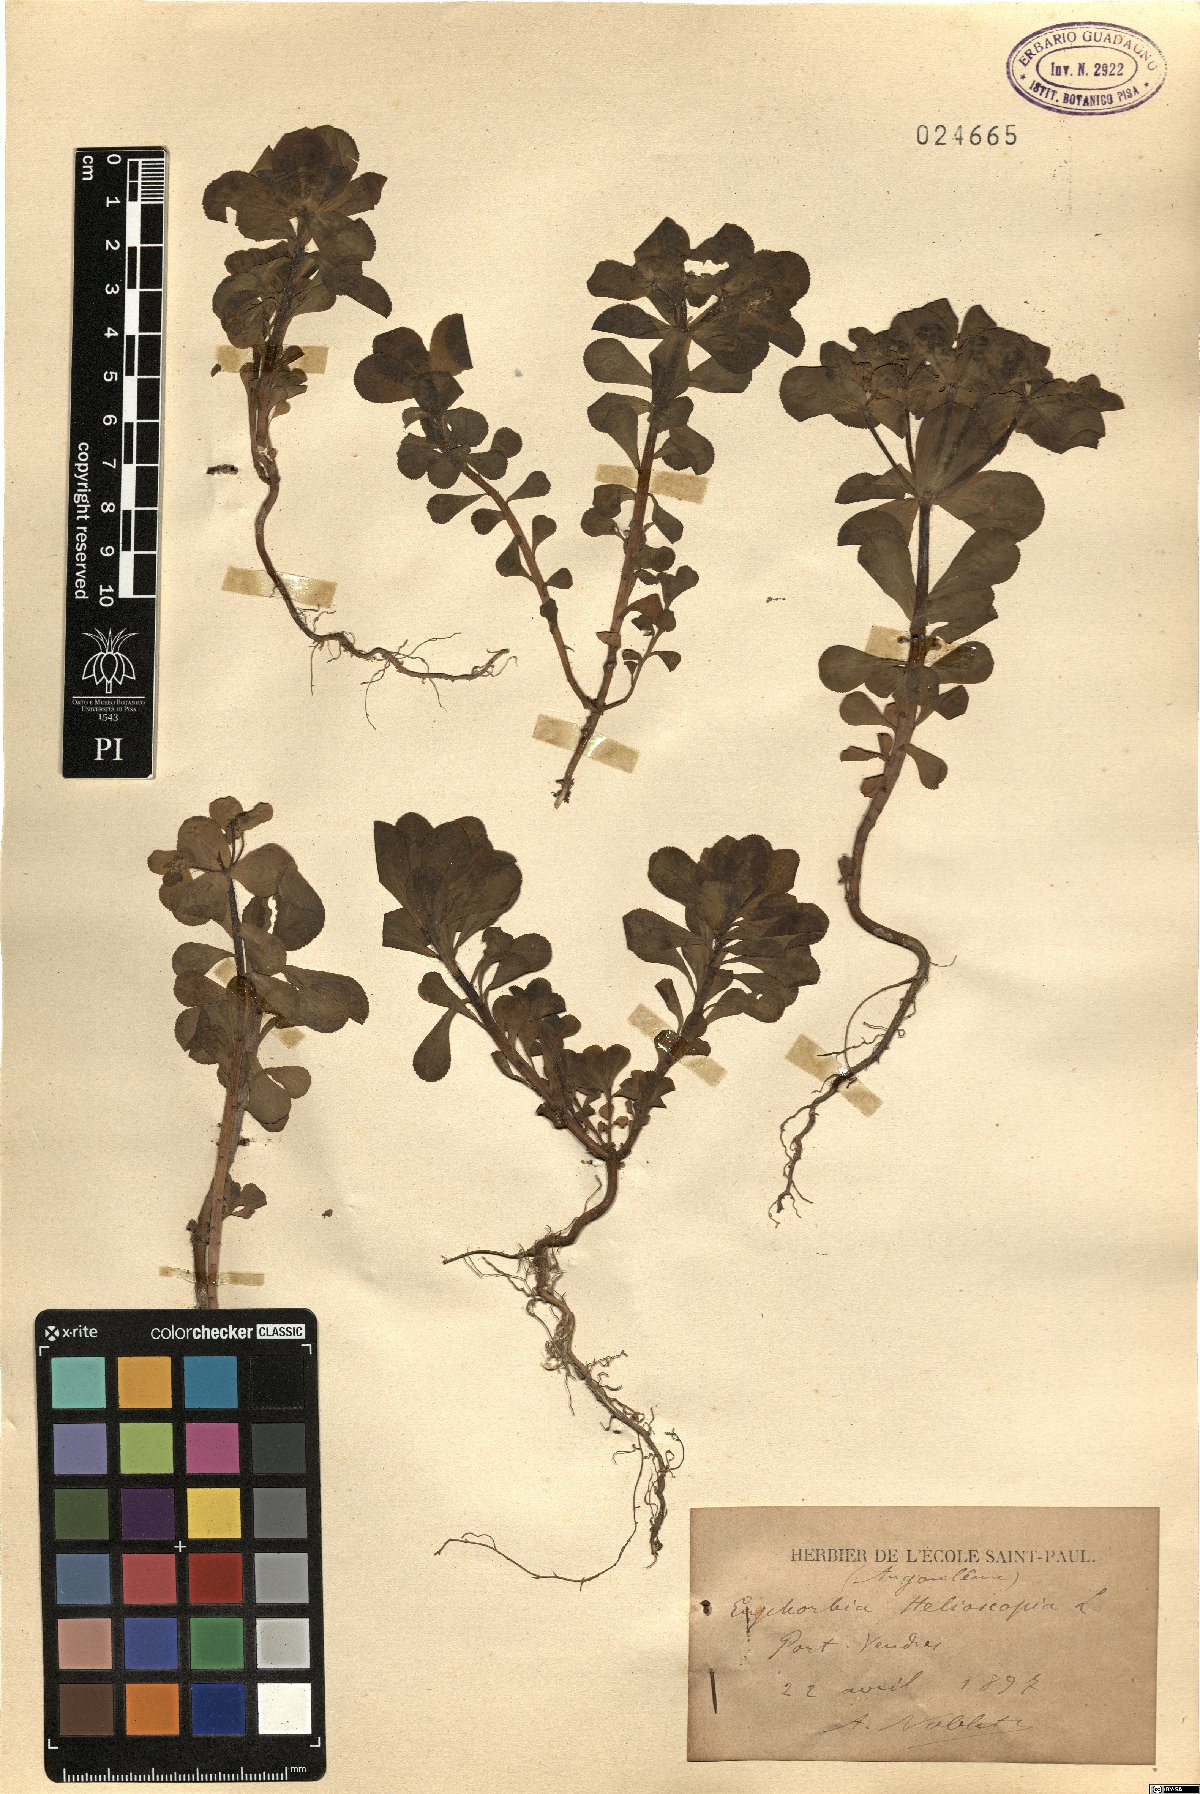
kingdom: Plantae
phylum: Tracheophyta
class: Magnoliopsida
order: Malpighiales
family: Euphorbiaceae
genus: Euphorbia
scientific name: Euphorbia helioscopia
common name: Sun spurge
